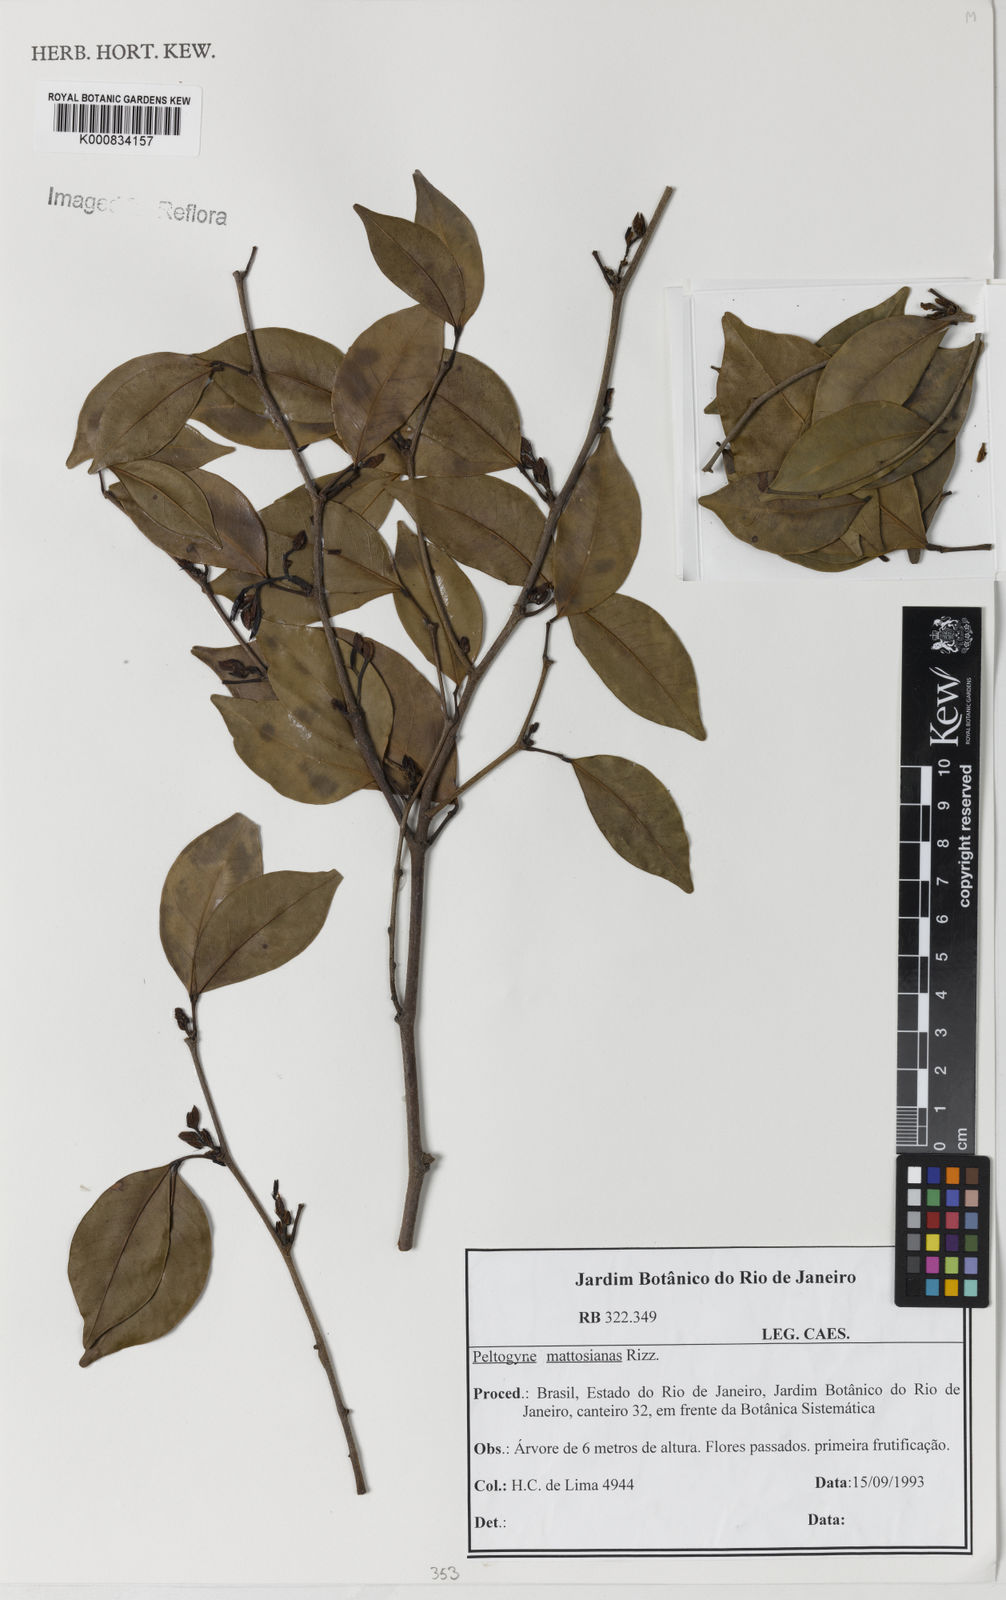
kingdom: Plantae
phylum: Tracheophyta
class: Magnoliopsida
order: Fabales
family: Fabaceae
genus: Peltogyne
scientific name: Peltogyne mattosiana
